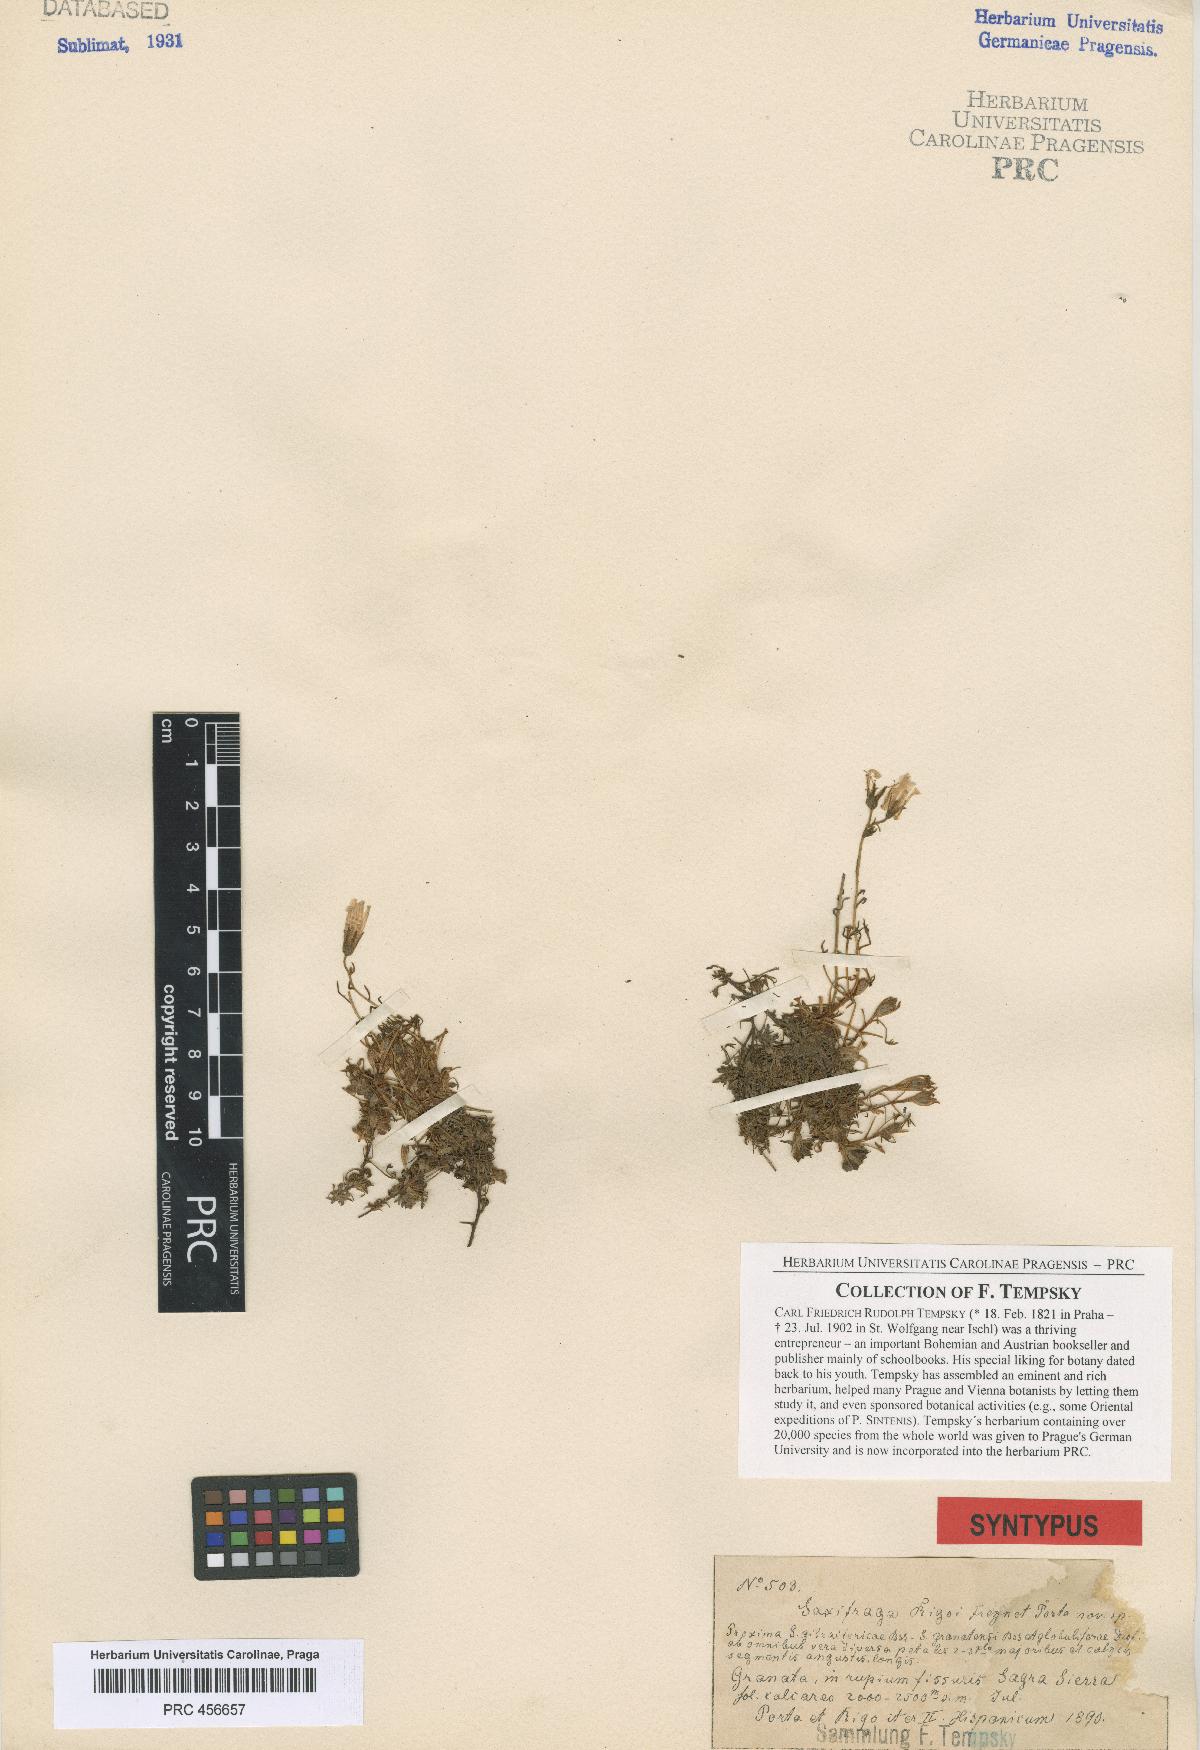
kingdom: Plantae
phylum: Tracheophyta
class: Magnoliopsida
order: Saxifragales
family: Saxifragaceae
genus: Saxifraga
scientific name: Saxifraga rigoi
